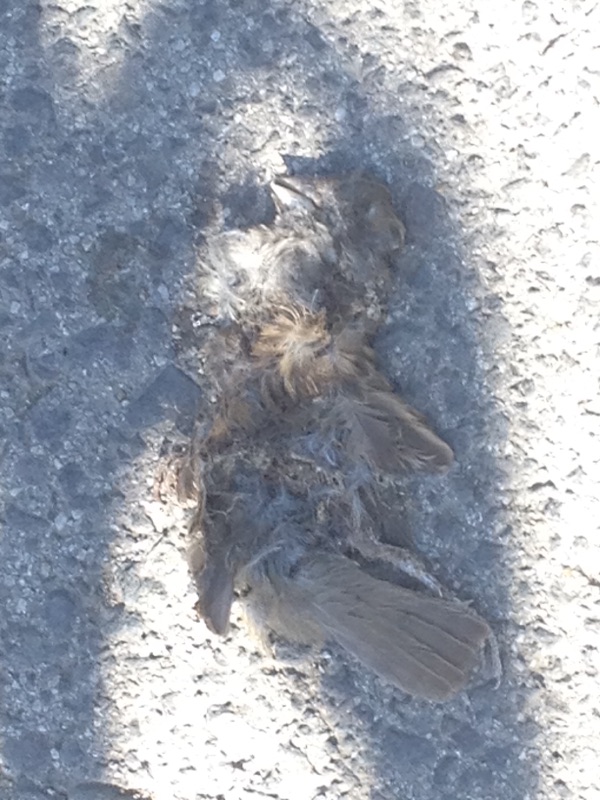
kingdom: Animalia
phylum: Chordata
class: Aves
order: Passeriformes
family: Passeridae
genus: Passer
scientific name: Passer
